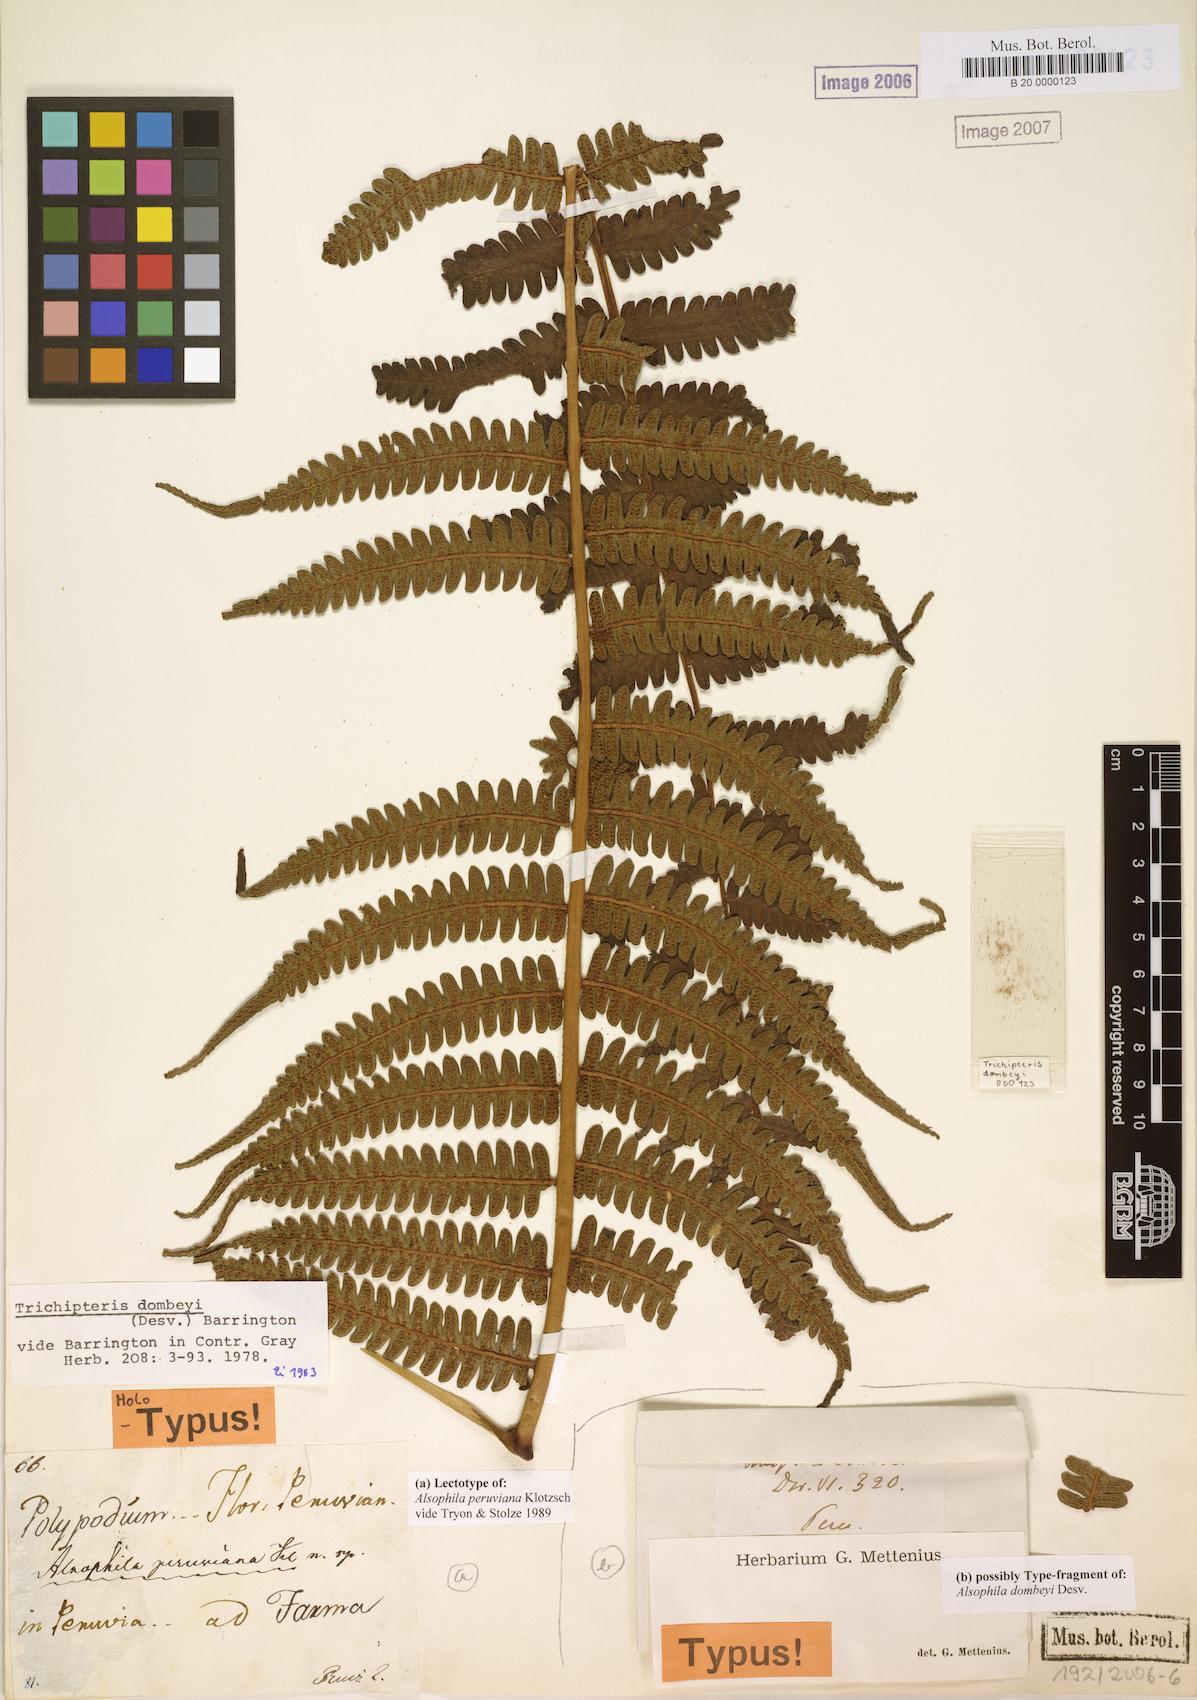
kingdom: Plantae
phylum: Tracheophyta
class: Polypodiopsida
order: Cyatheales
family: Cyatheaceae
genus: Cyathea
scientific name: Cyathea dombeyi
